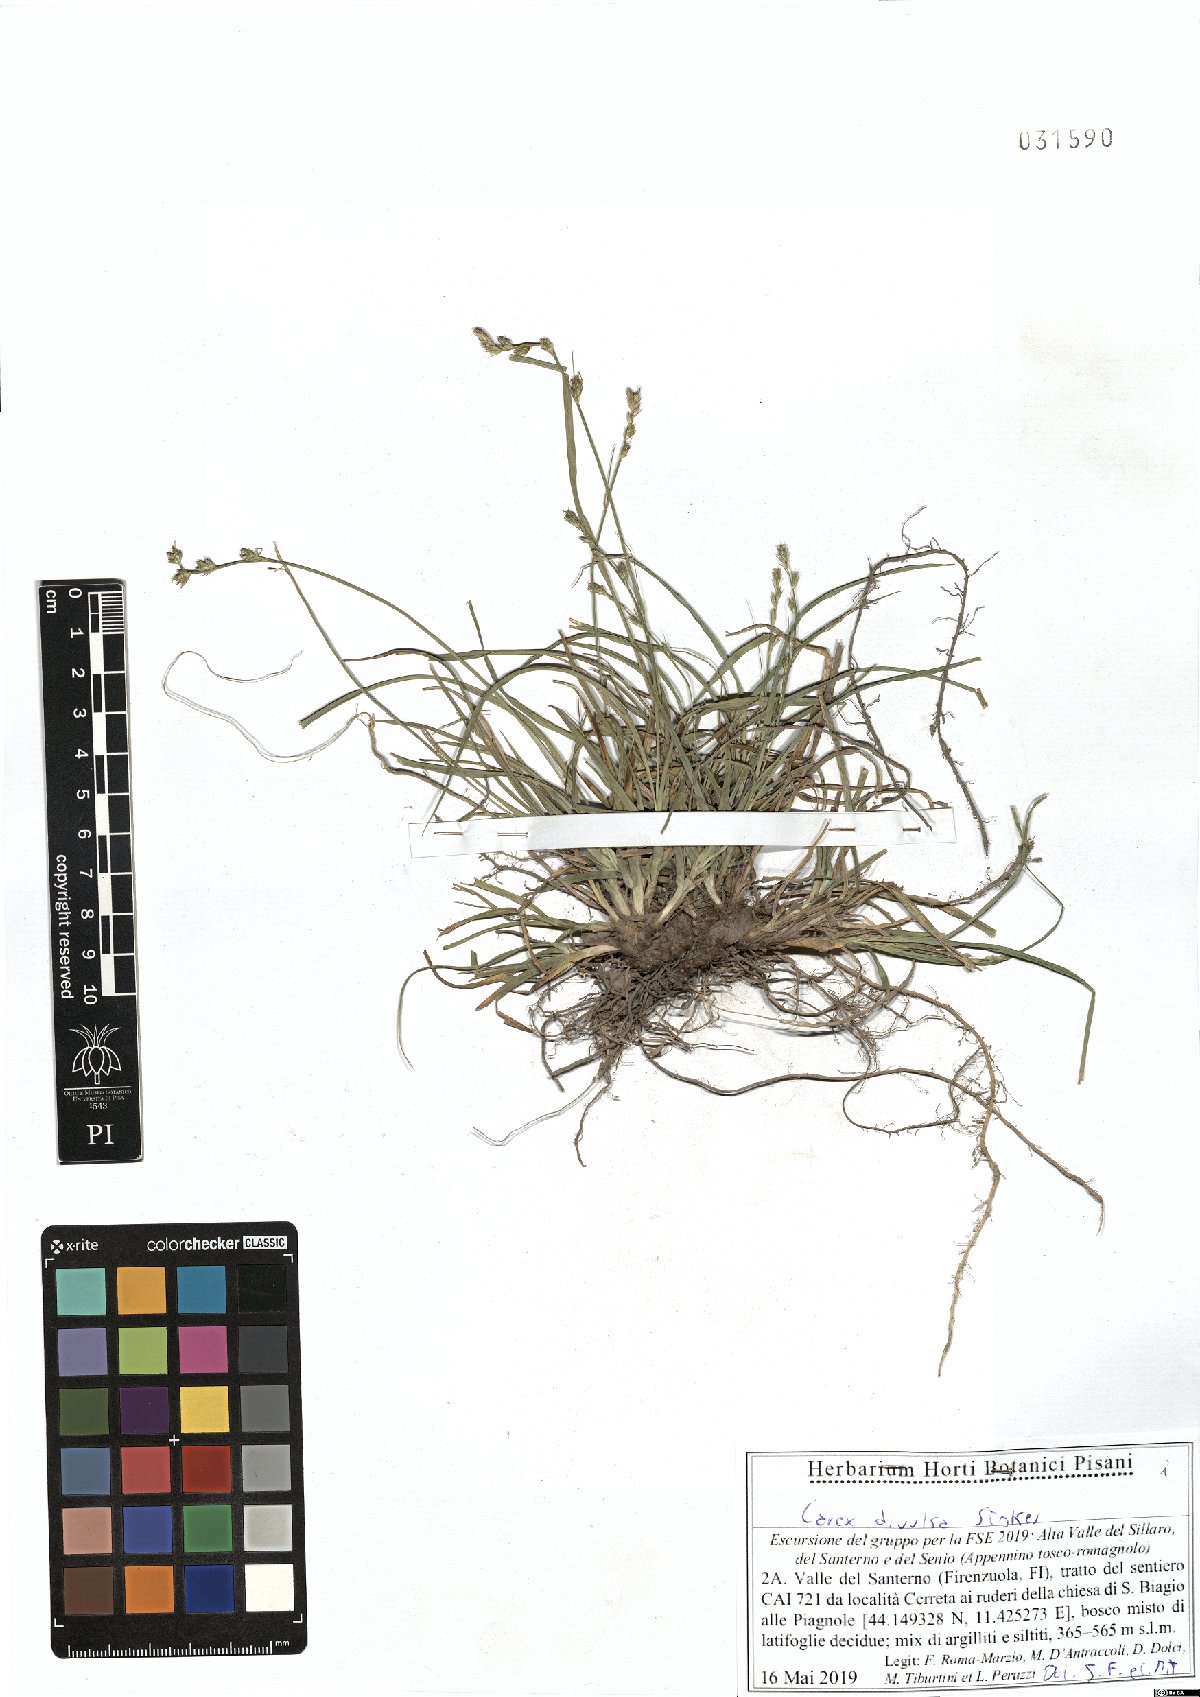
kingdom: Plantae
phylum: Tracheophyta
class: Liliopsida
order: Poales
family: Cyperaceae
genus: Carex
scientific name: Carex divulsa
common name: Grassland sedge
